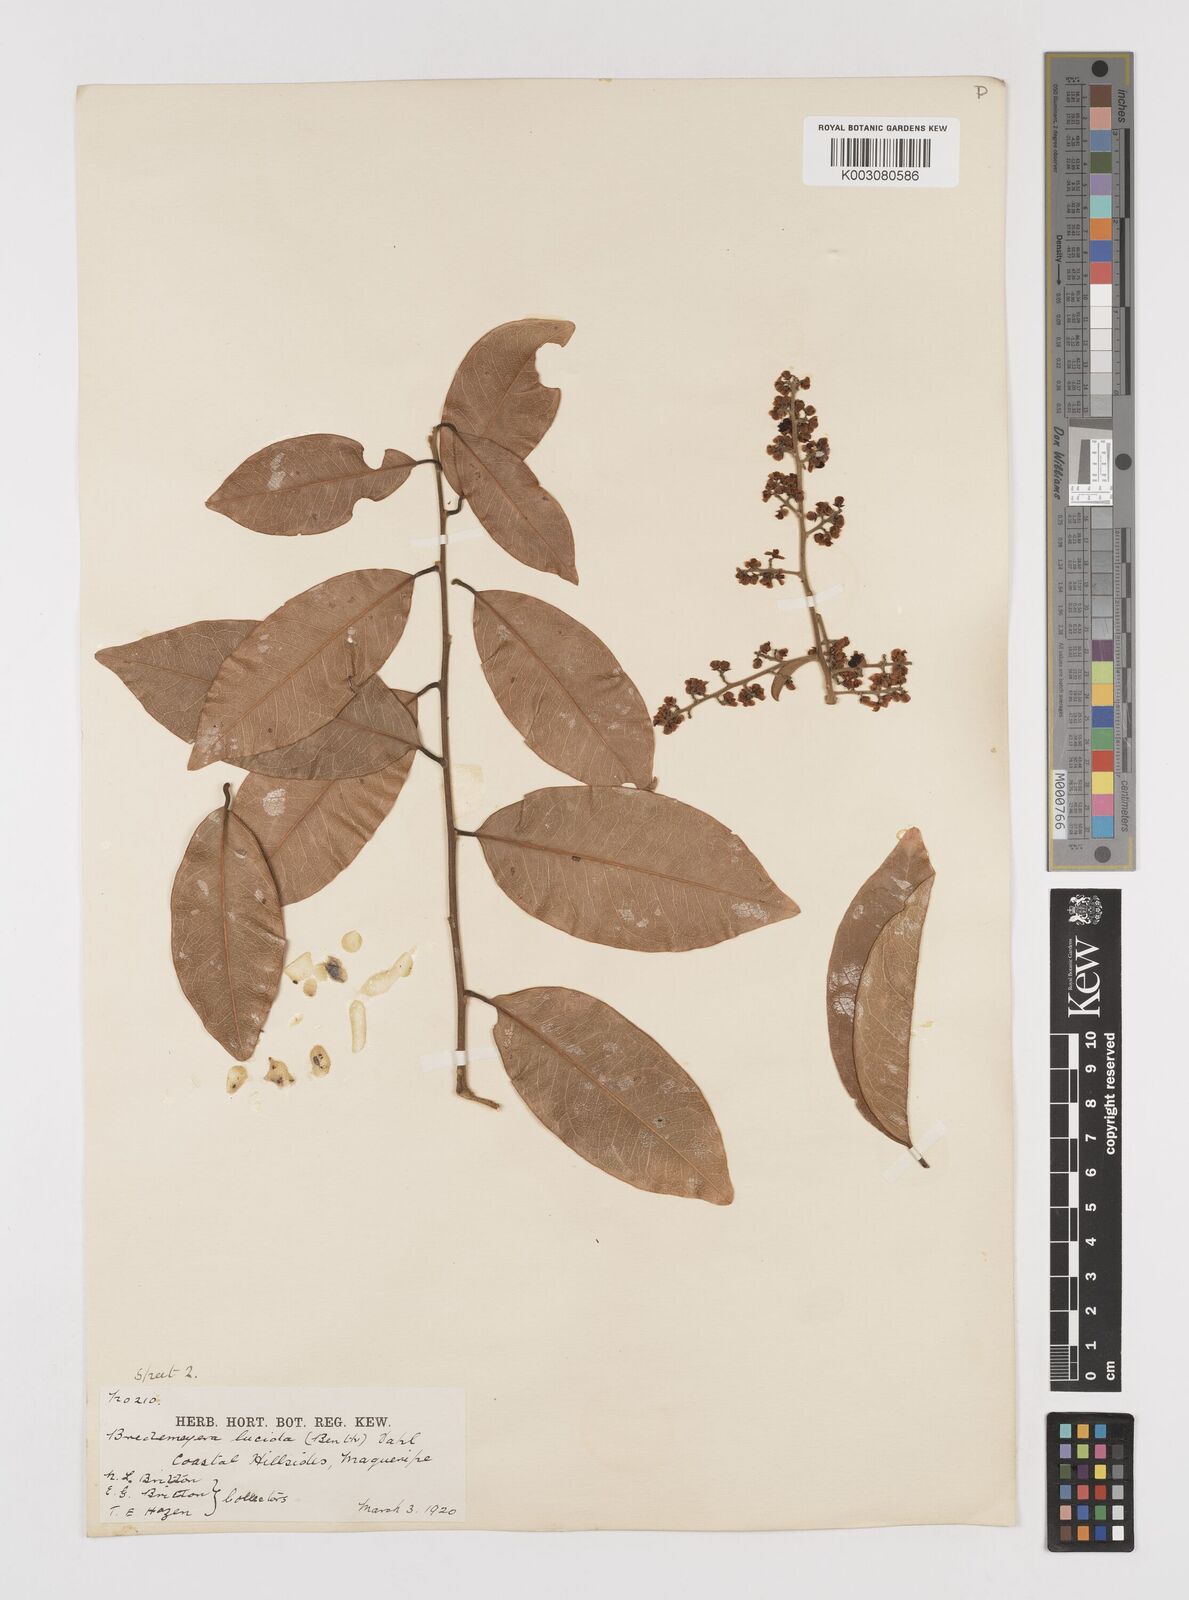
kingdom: Plantae
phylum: Tracheophyta
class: Magnoliopsida
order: Fabales
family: Polygalaceae
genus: Bredemeyera
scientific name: Bredemeyera lucida
